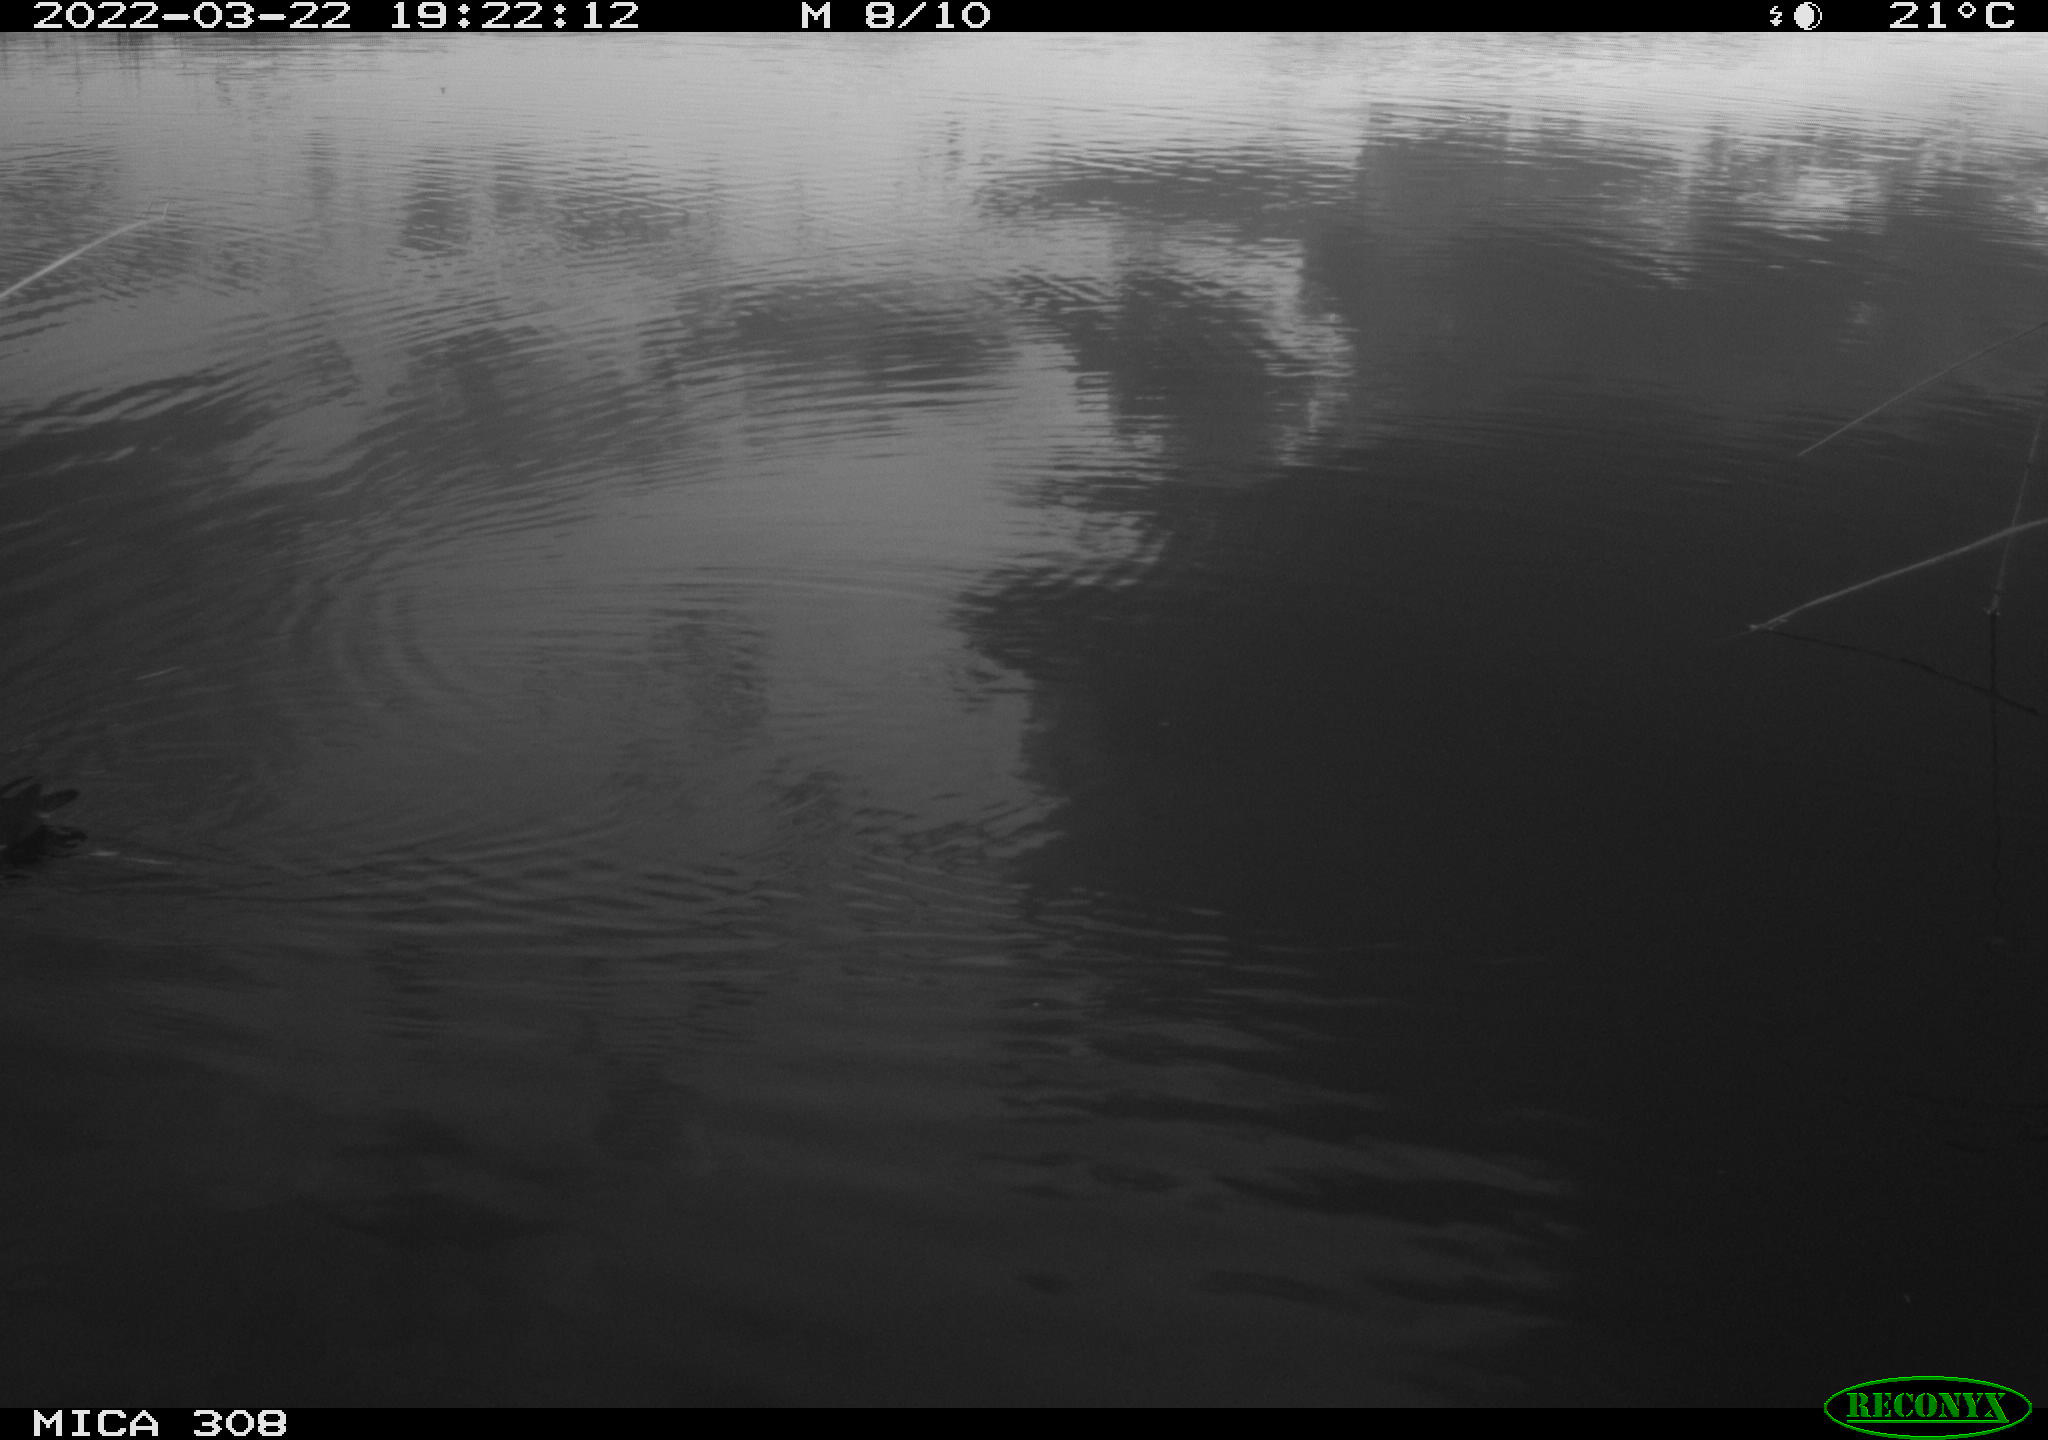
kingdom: Animalia
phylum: Chordata
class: Aves
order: Gruiformes
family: Rallidae
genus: Gallinula
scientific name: Gallinula chloropus
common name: Common moorhen
